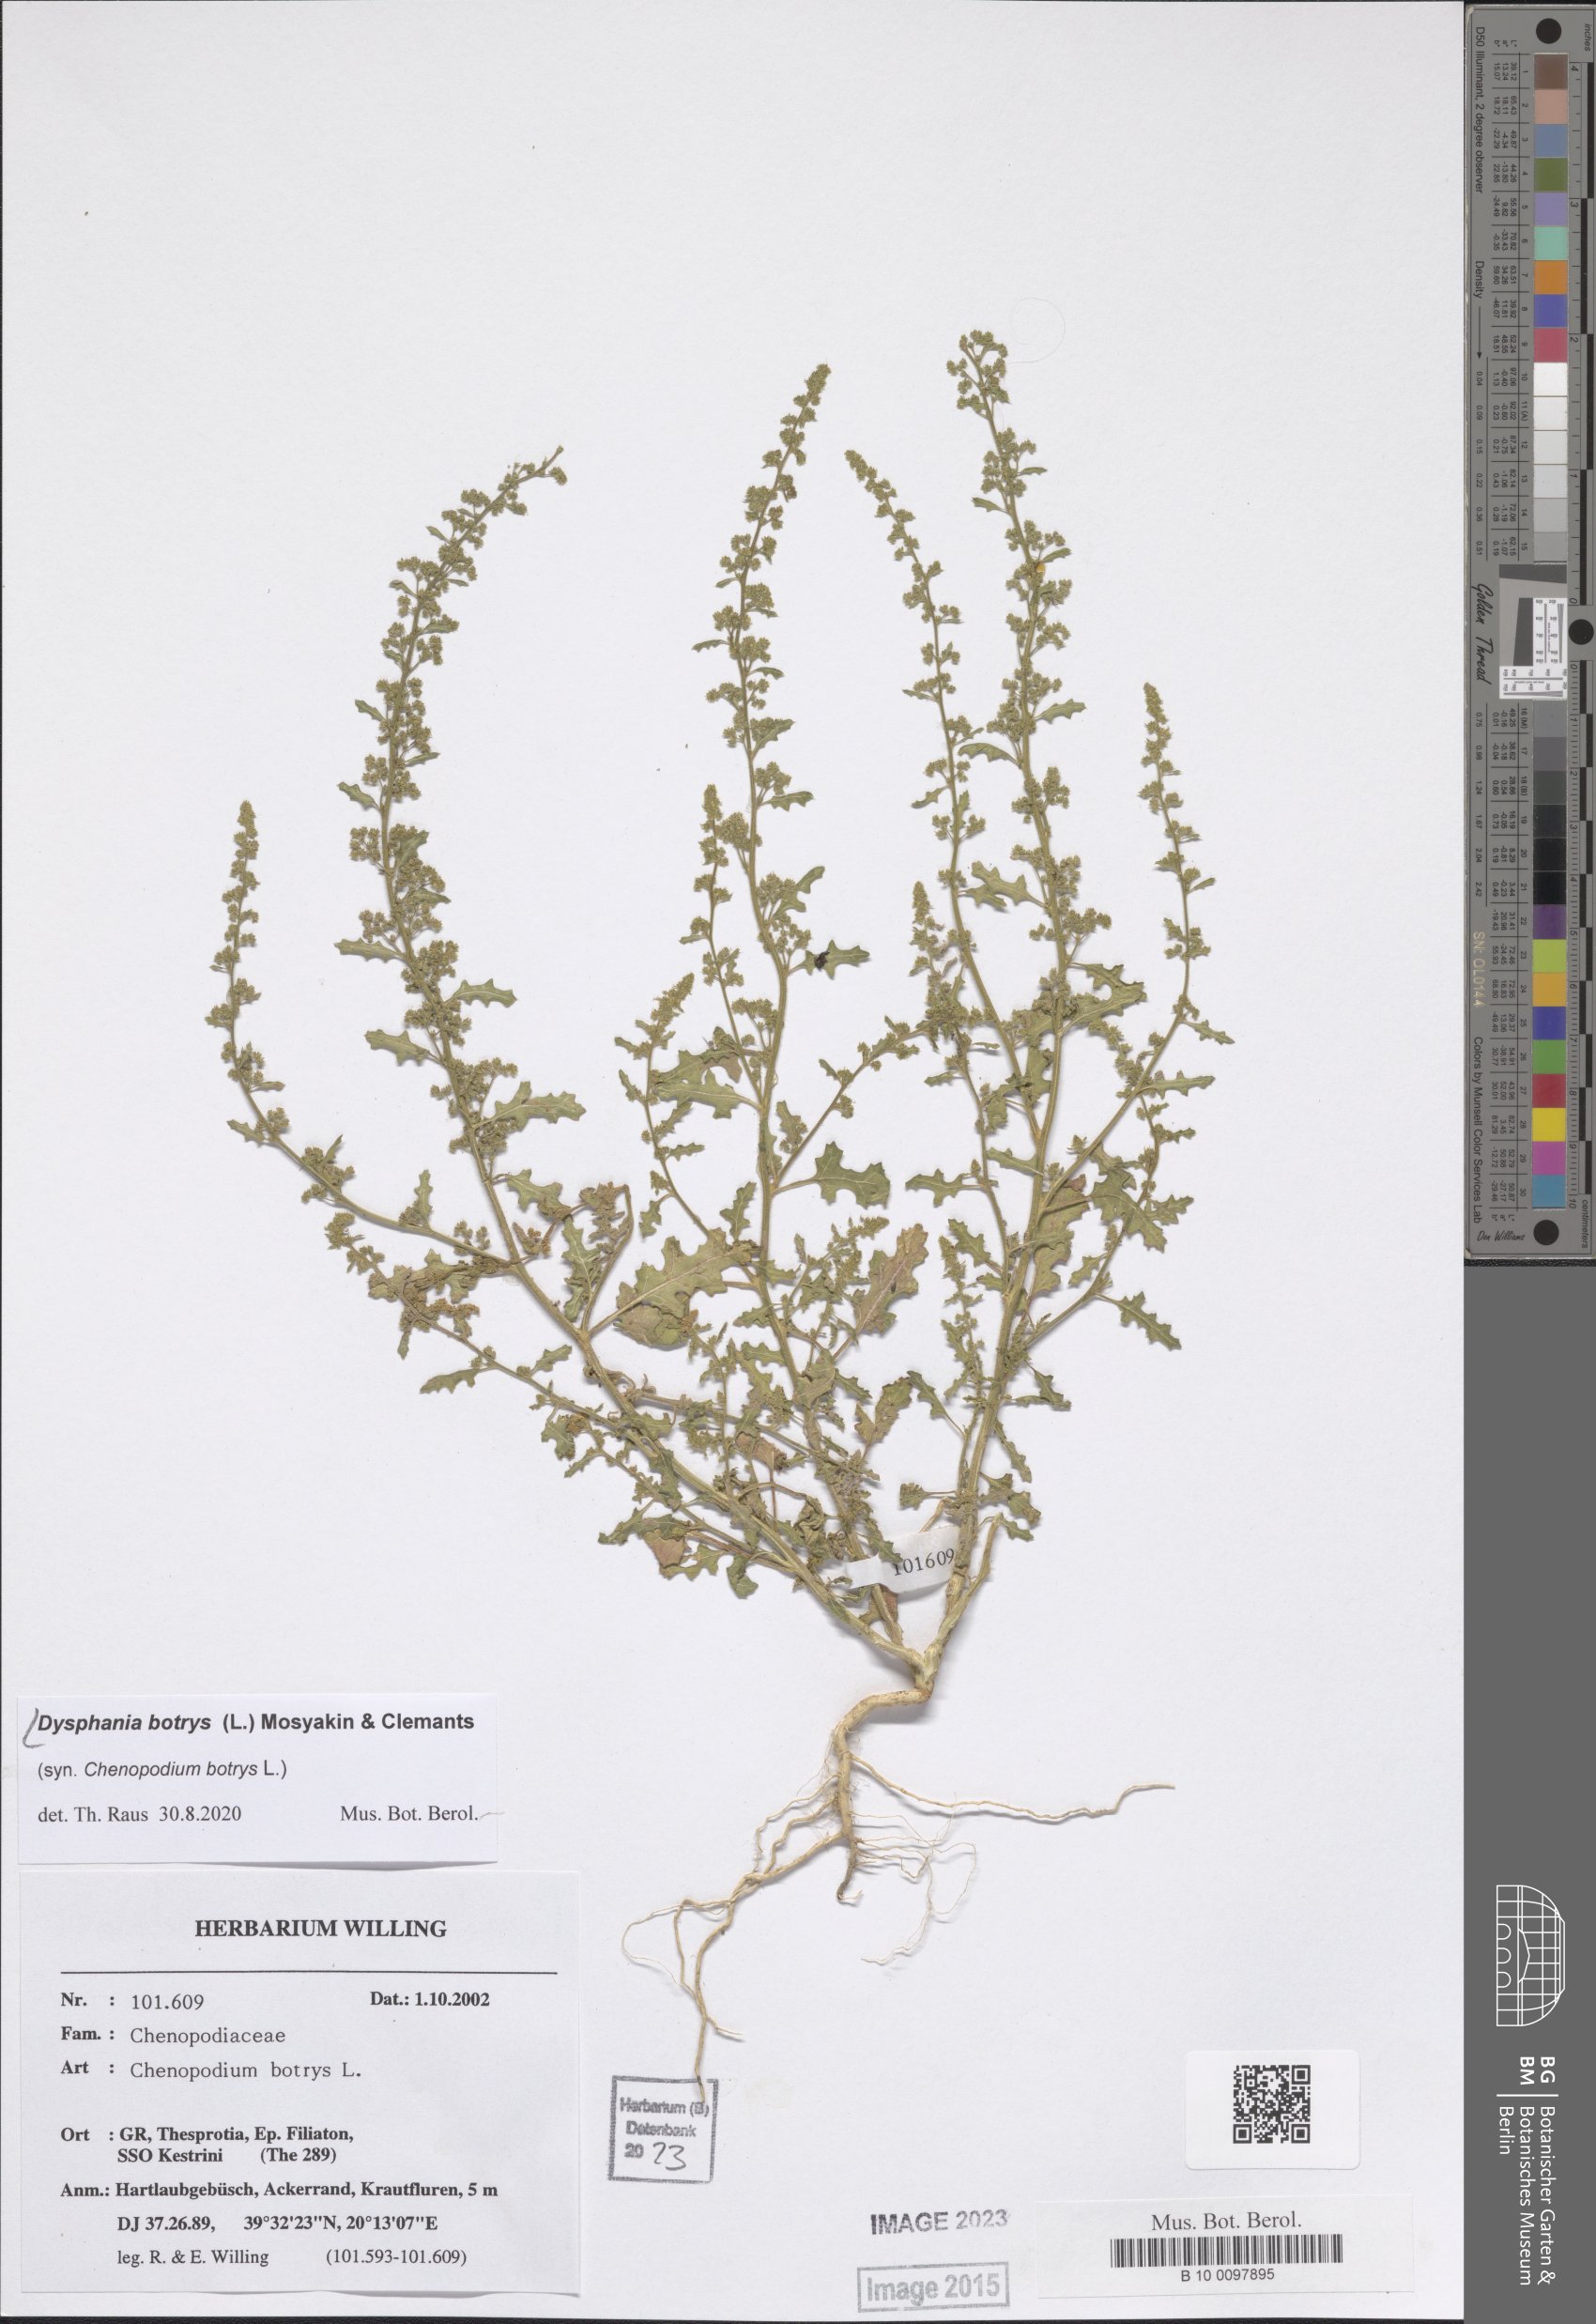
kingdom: Plantae
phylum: Tracheophyta
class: Magnoliopsida
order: Caryophyllales
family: Amaranthaceae
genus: Dysphania
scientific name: Dysphania botrys
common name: Feather-geranium
